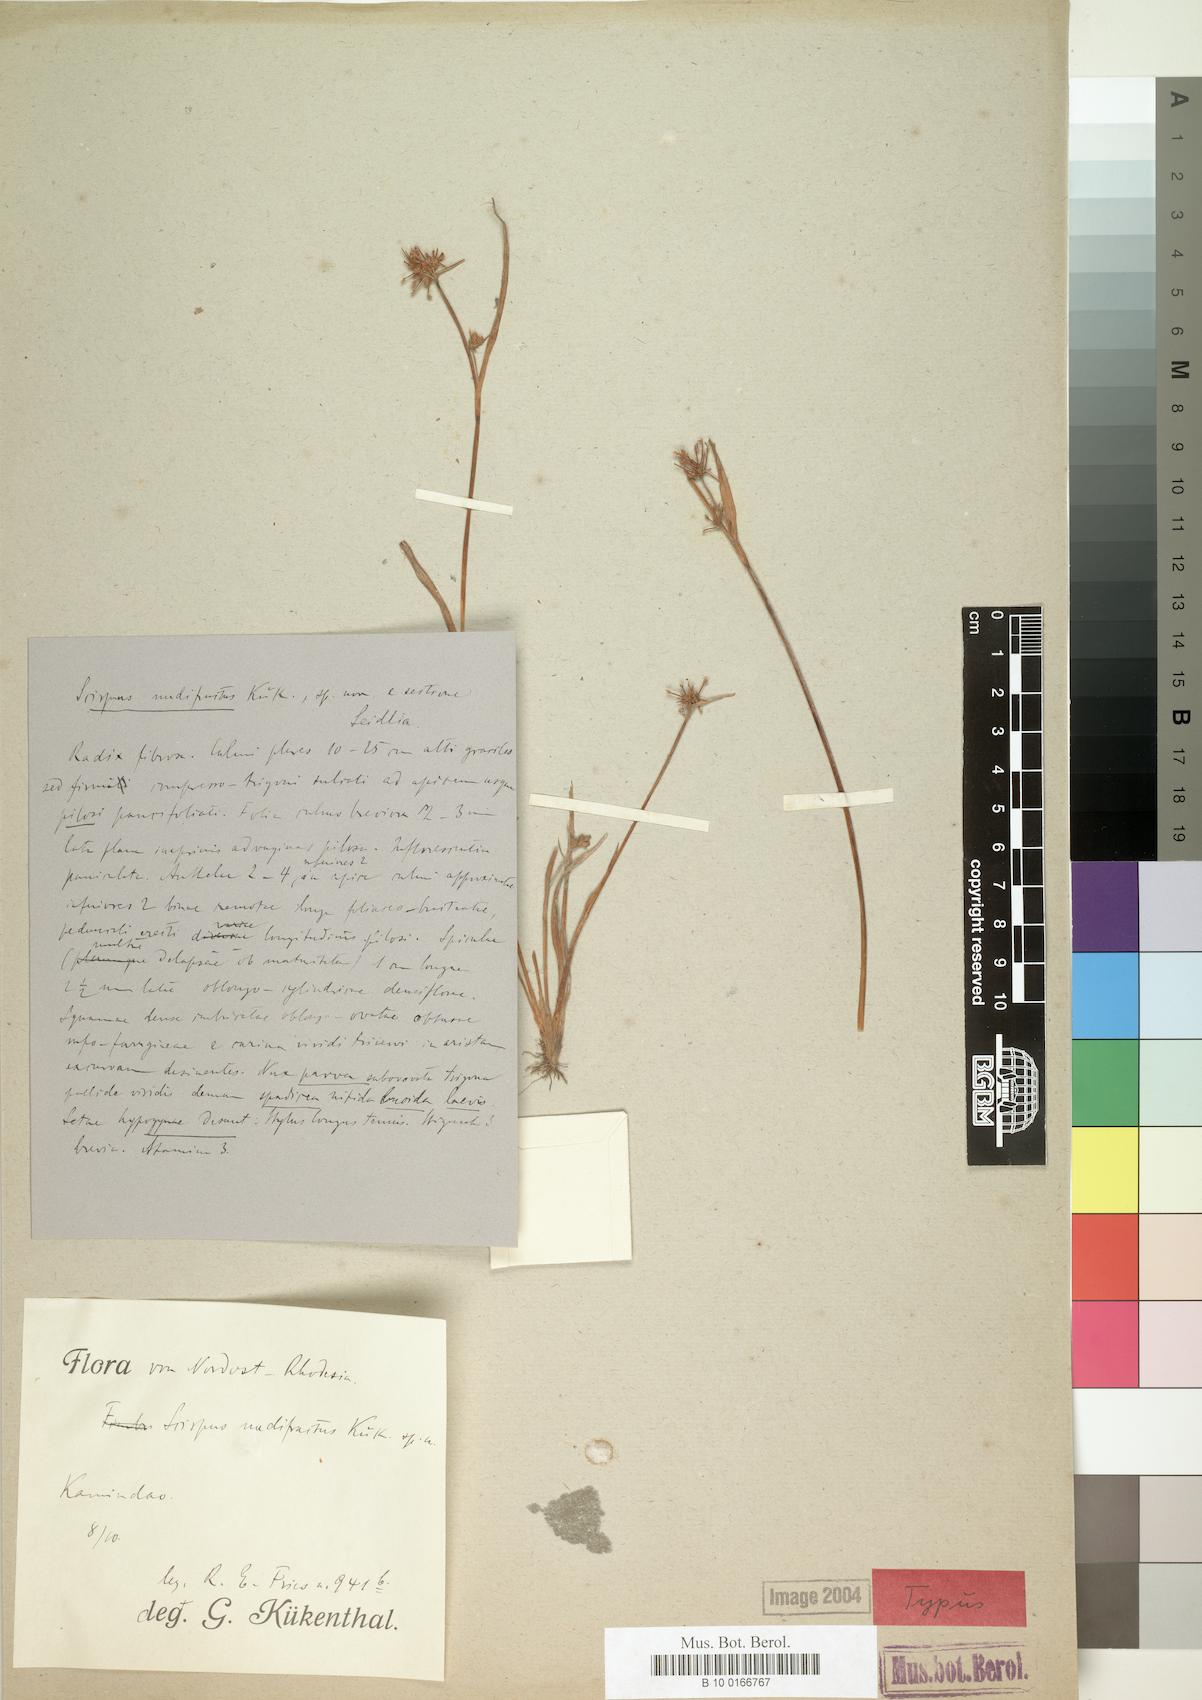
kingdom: Plantae
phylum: Tracheophyta
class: Liliopsida
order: Poales
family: Cyperaceae
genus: Fuirena
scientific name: Fuirena leptostachya
